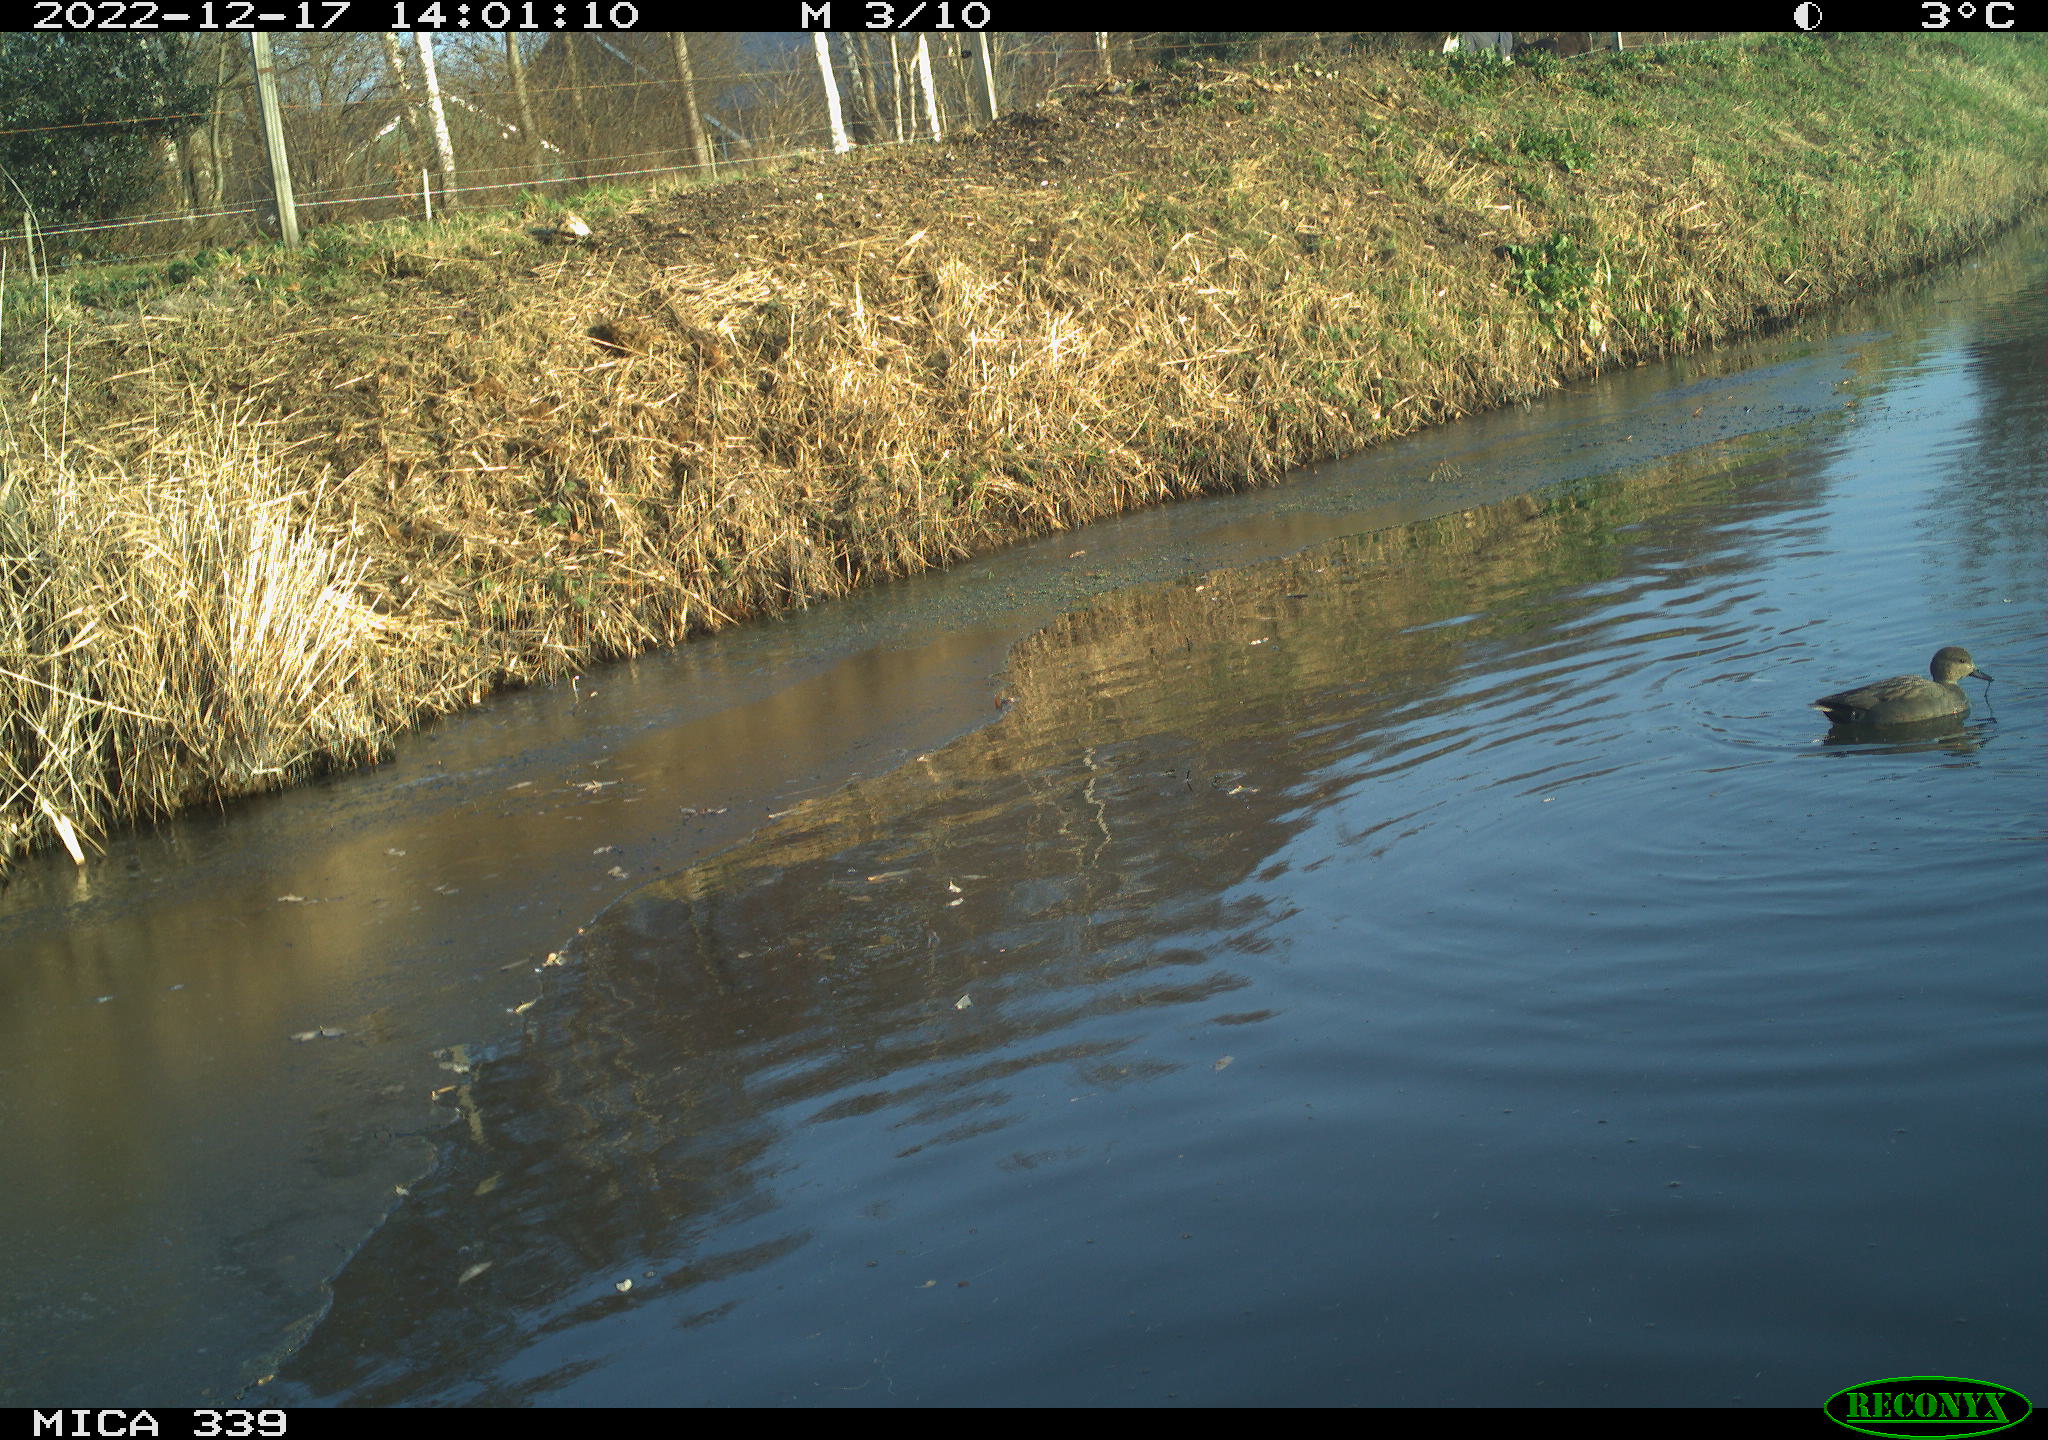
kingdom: Animalia
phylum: Chordata
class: Aves
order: Anseriformes
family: Anatidae
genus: Anas
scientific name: Anas
